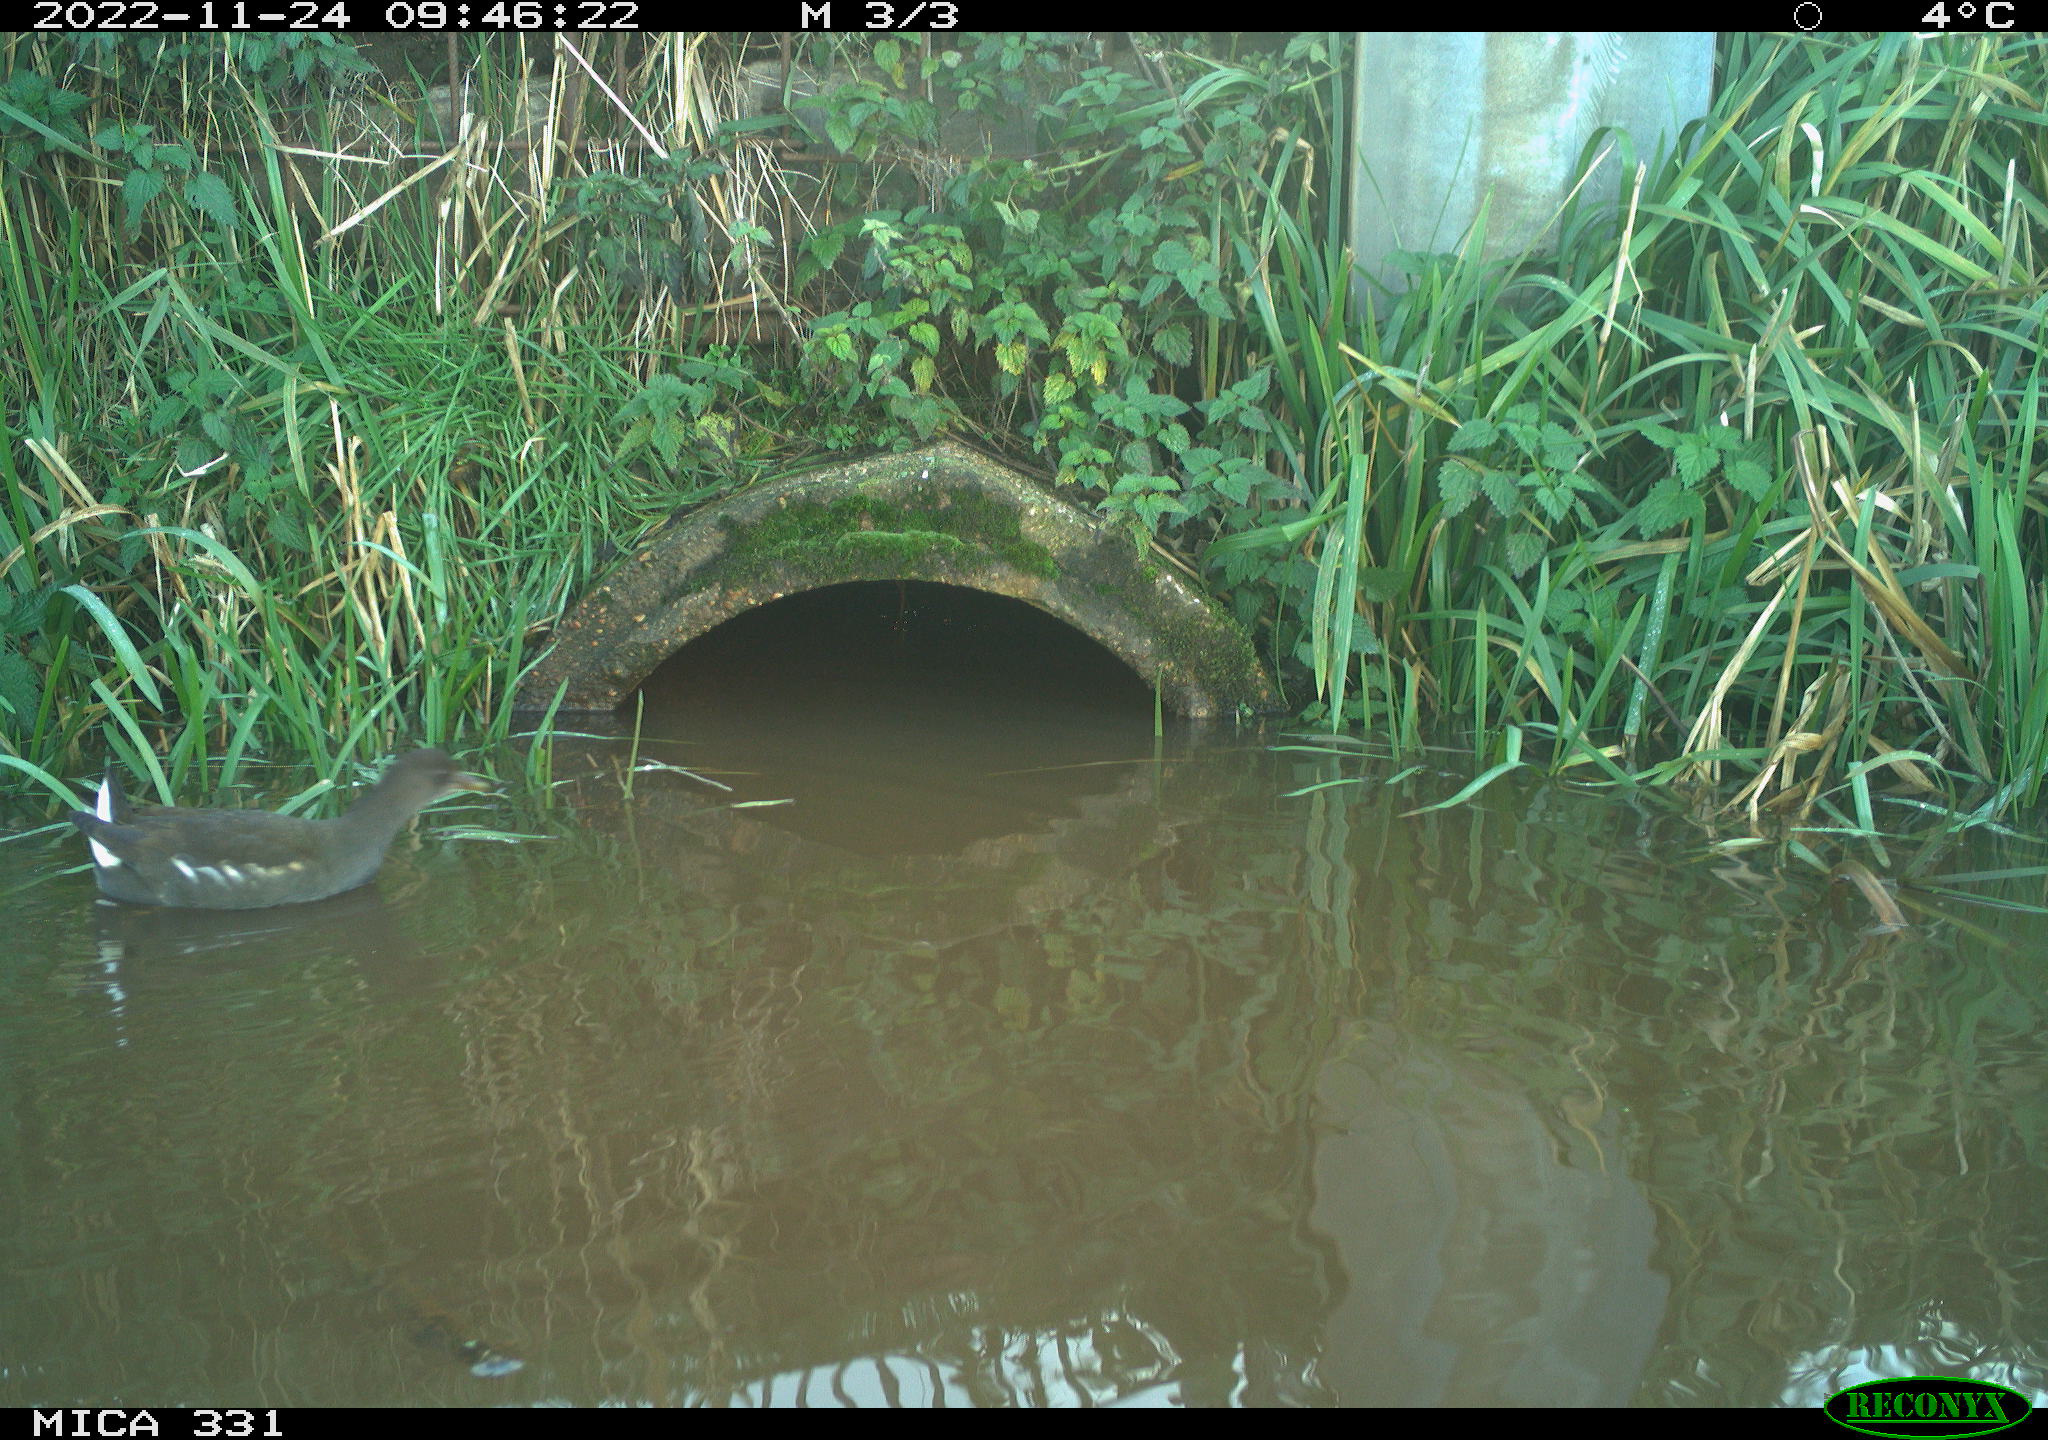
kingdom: Animalia
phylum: Chordata
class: Aves
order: Gruiformes
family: Rallidae
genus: Gallinula
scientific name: Gallinula chloropus
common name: Common moorhen
